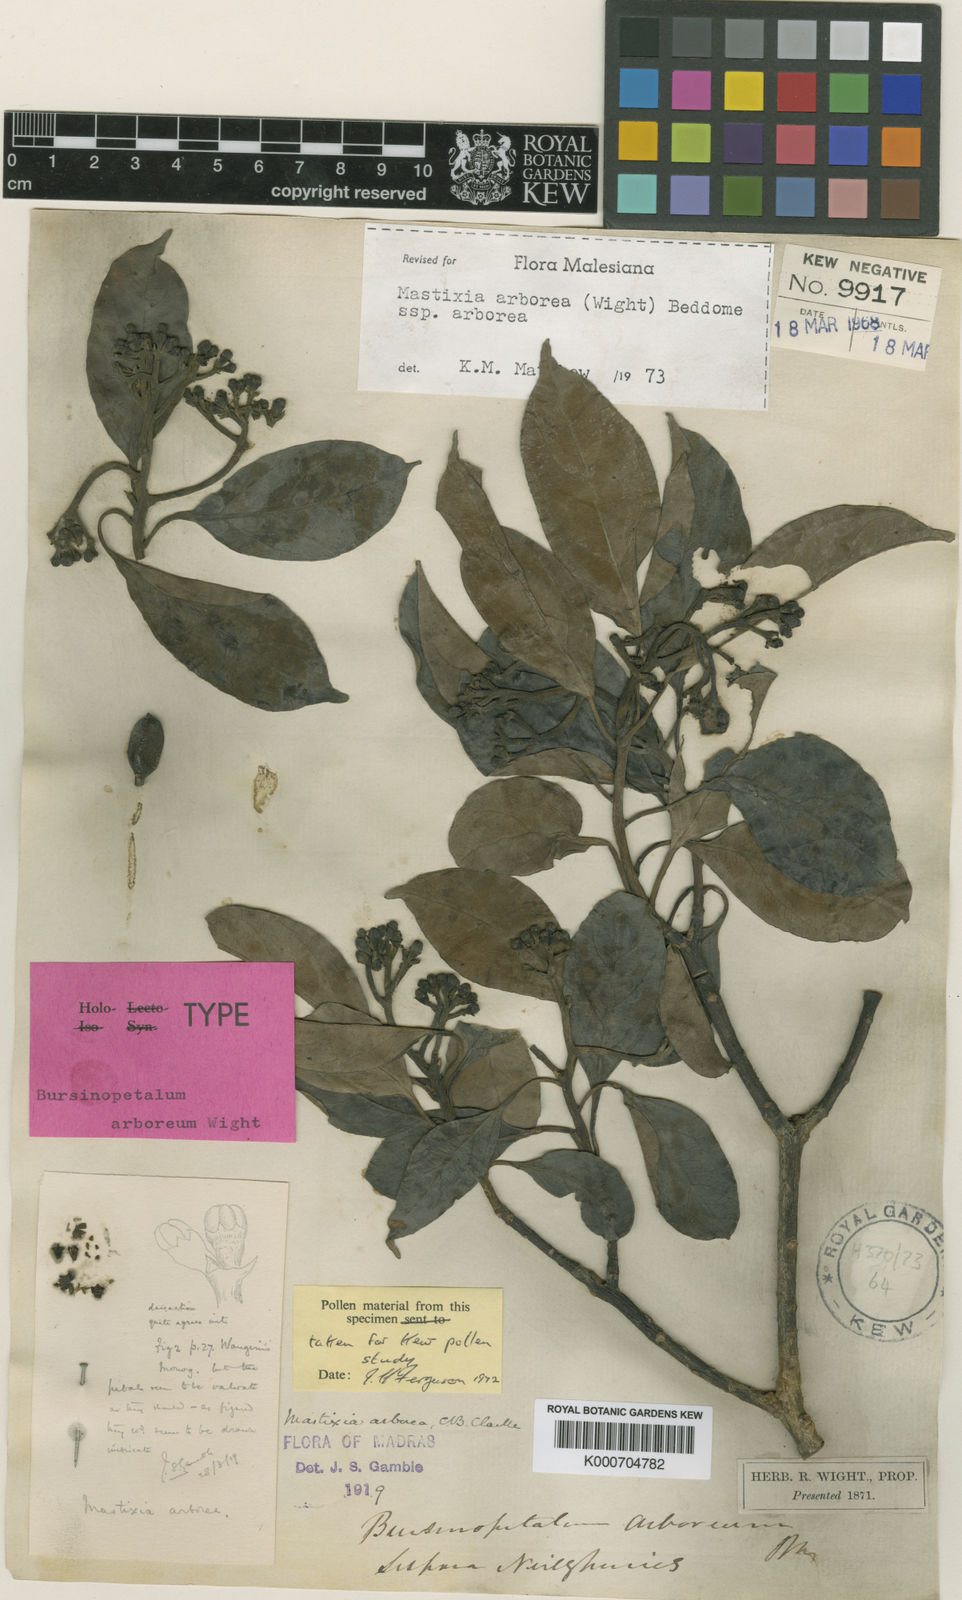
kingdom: Plantae
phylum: Tracheophyta
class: Magnoliopsida
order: Cornales
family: Nyssaceae
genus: Mastixia
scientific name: Mastixia arborea
